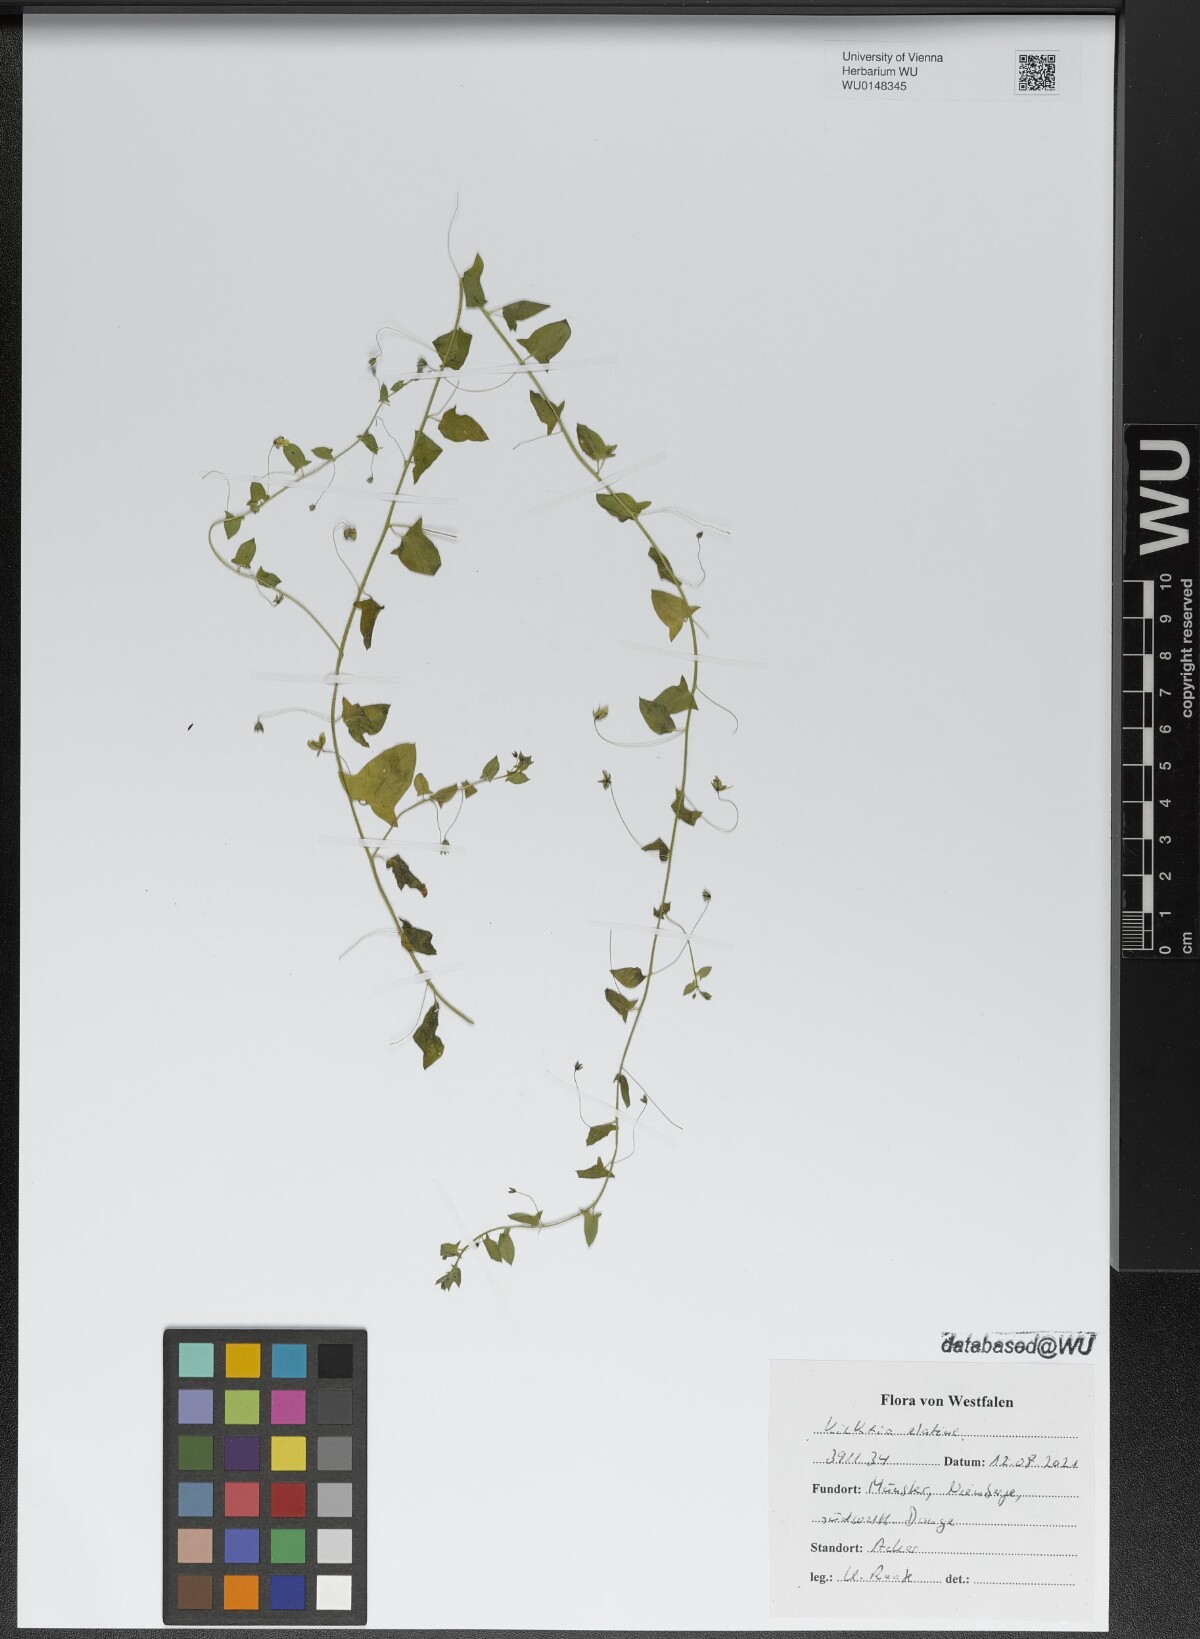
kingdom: Plantae
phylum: Tracheophyta
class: Magnoliopsida
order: Lamiales
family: Plantaginaceae
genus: Kickxia
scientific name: Kickxia elatine
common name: Sharp-leaved fluellen
